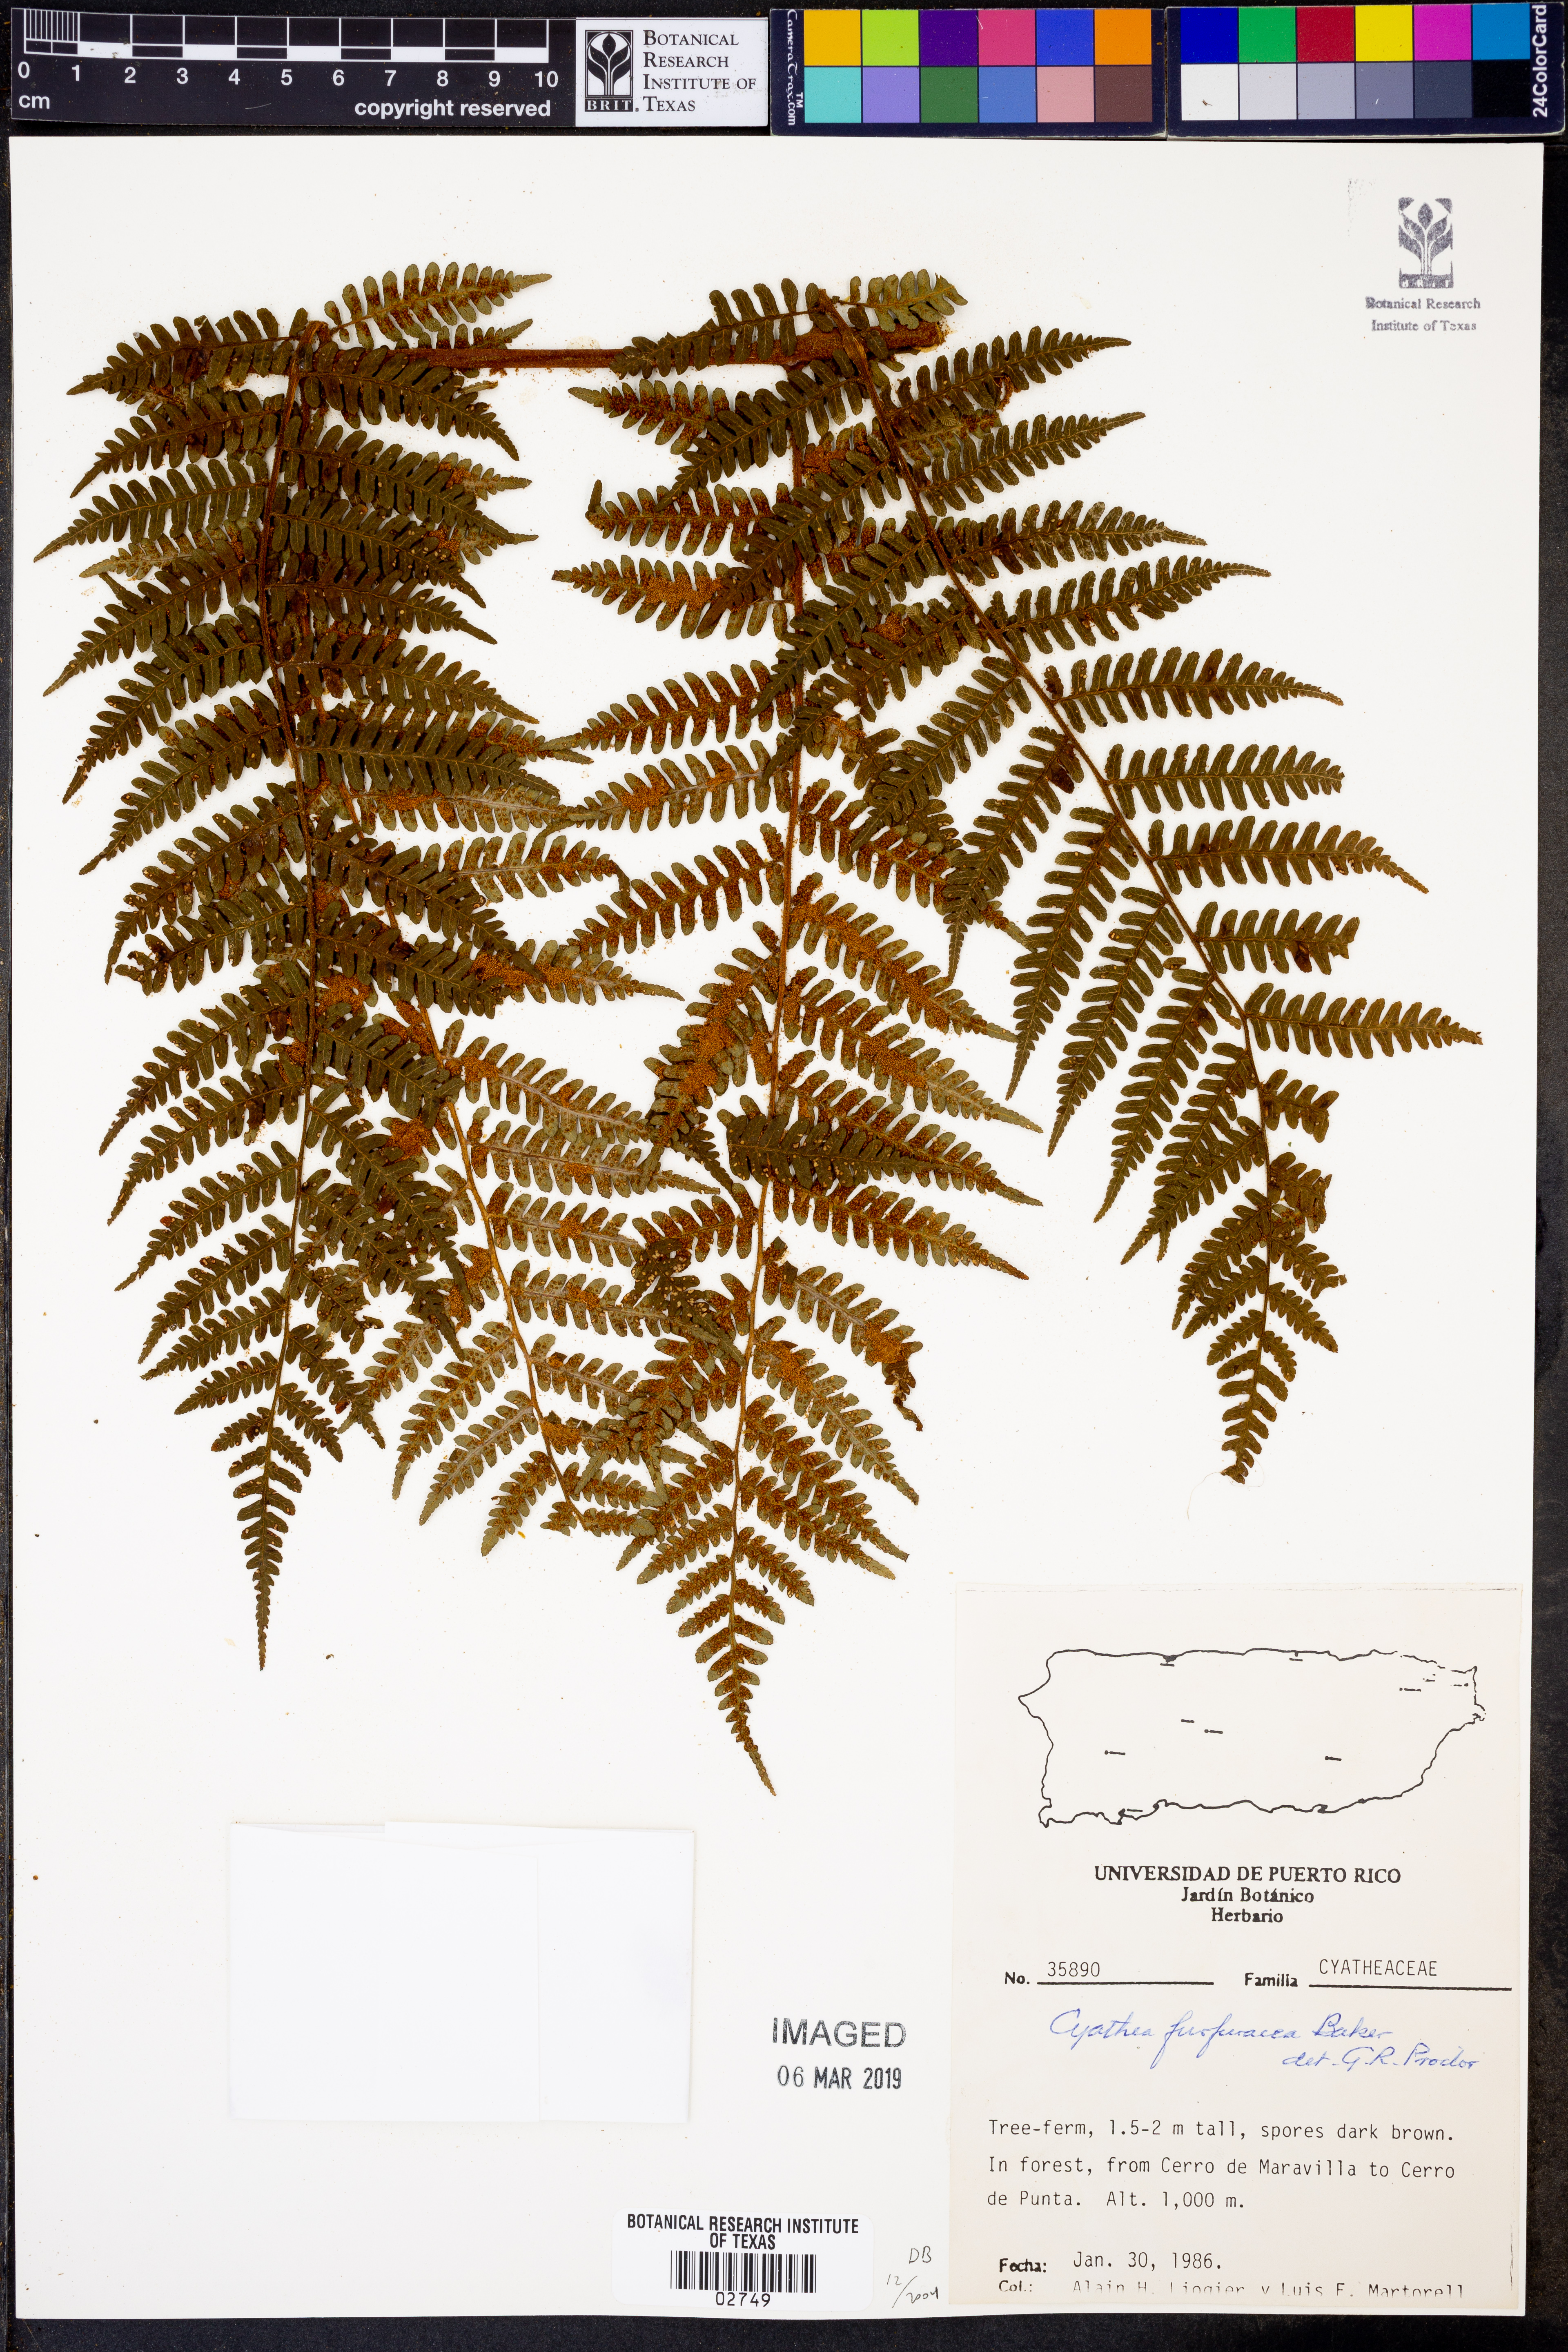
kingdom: Plantae
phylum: Tracheophyta
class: Polypodiopsida
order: Cyatheales
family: Cyatheaceae
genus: Cyathea
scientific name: Cyathea tenera
